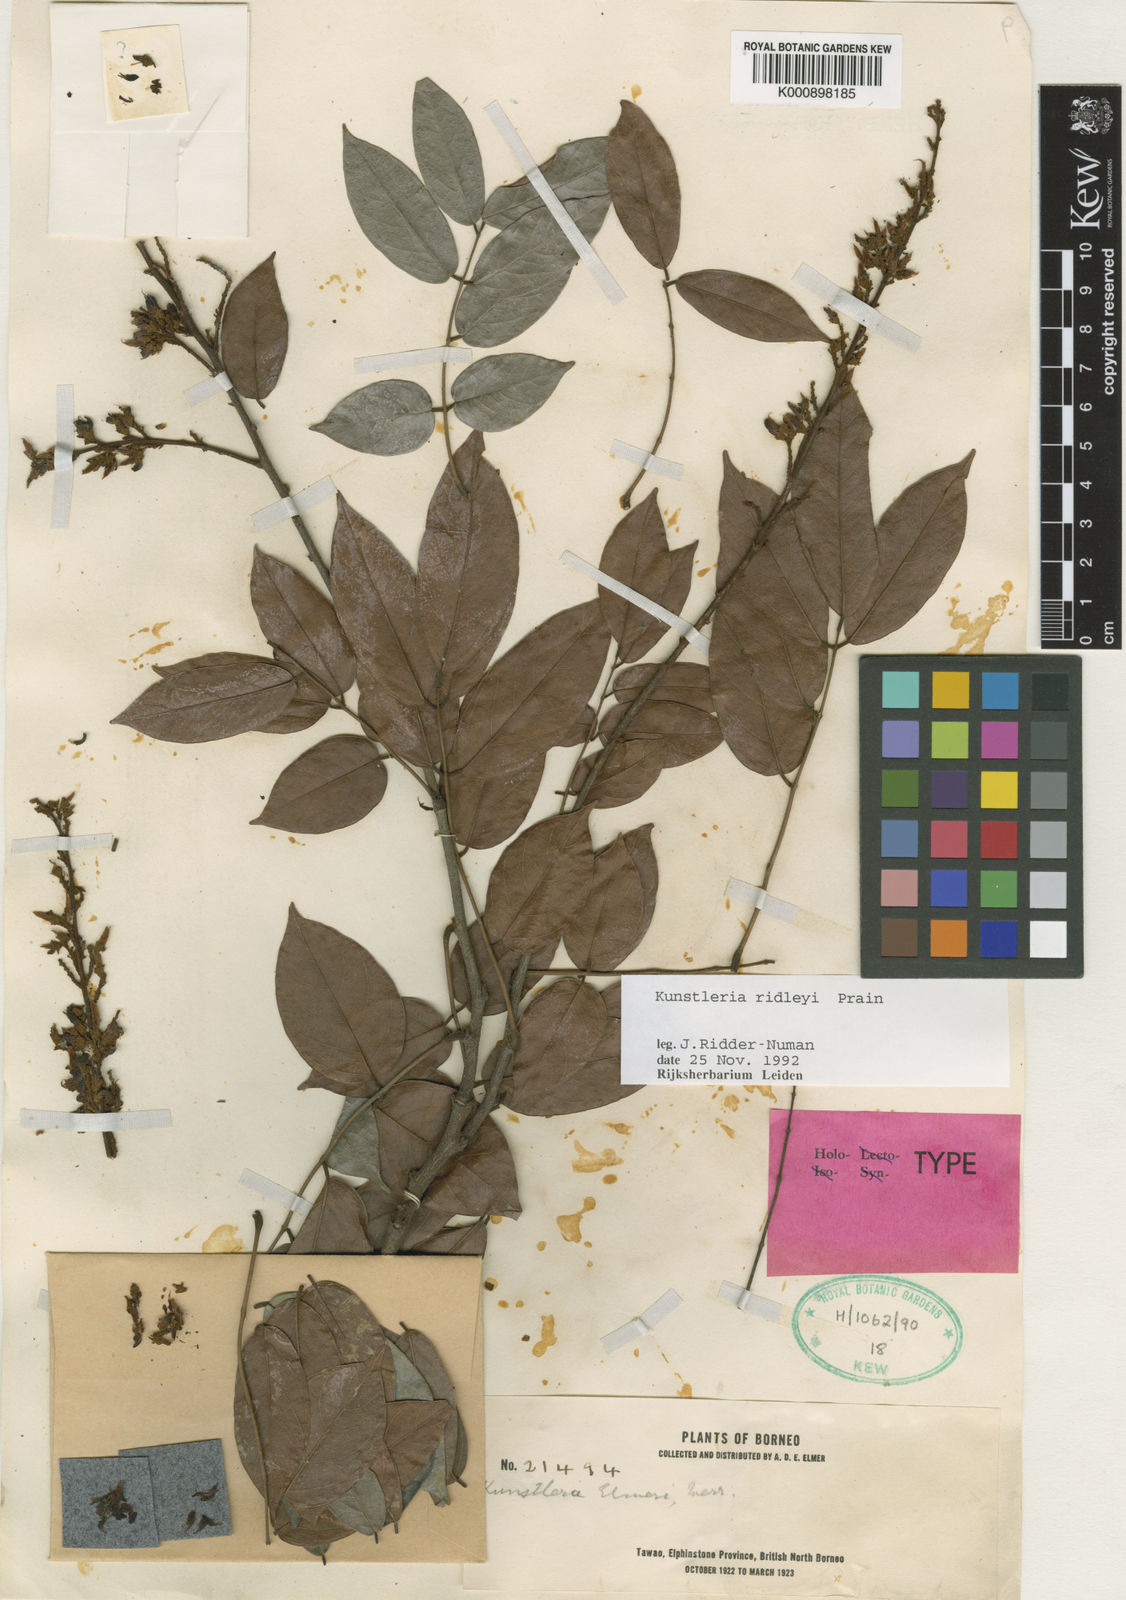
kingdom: Plantae
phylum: Tracheophyta
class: Magnoliopsida
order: Fabales
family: Fabaceae
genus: Kunstleria
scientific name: Kunstleria ridleyi
